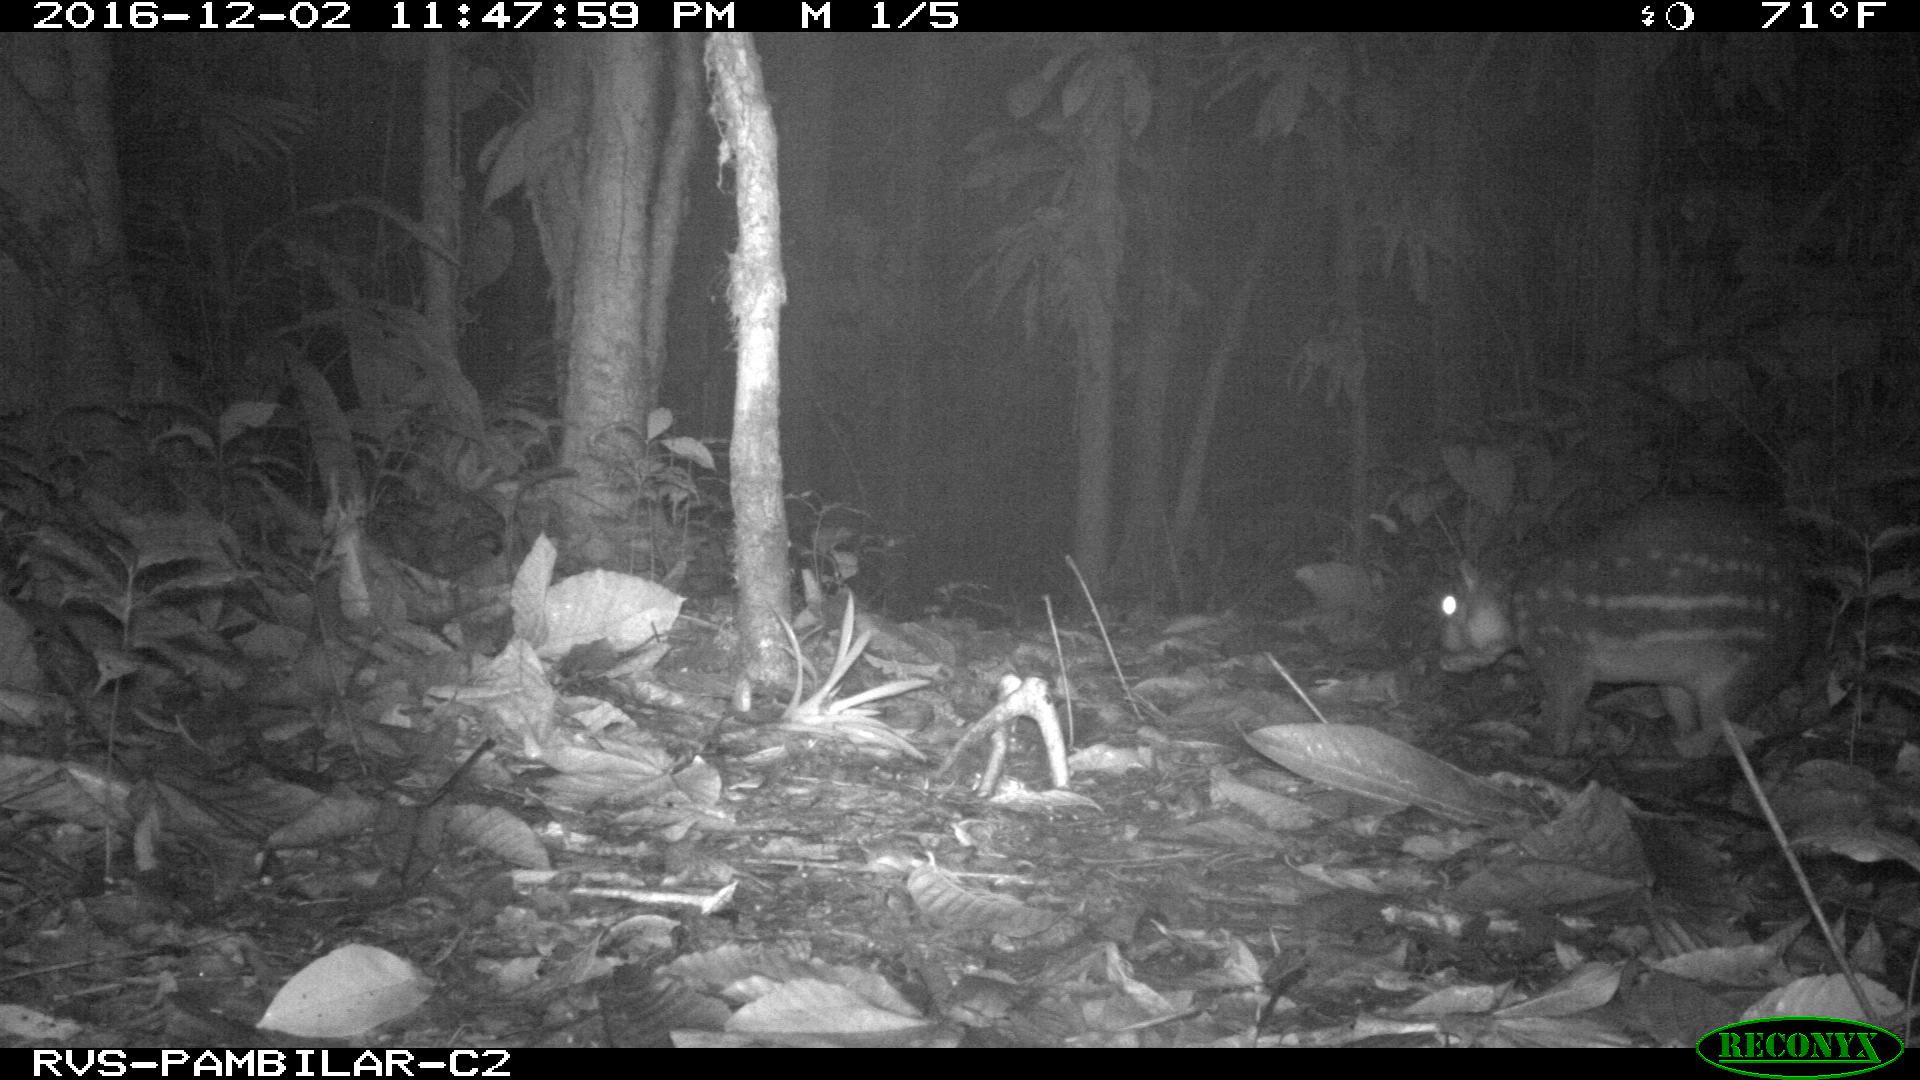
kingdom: Animalia
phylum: Chordata
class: Mammalia
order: Rodentia
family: Cuniculidae
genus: Cuniculus
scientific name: Cuniculus paca
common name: Lowland paca
